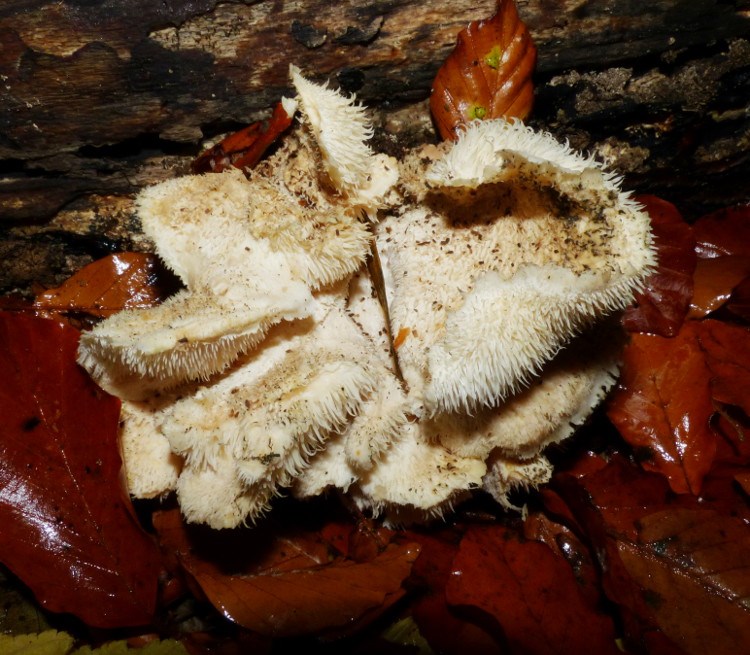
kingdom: Fungi
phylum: Basidiomycota
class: Agaricomycetes
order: Russulales
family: Hericiaceae
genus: Hericium
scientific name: Hericium cirrhatum
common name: børstepigsvamp
